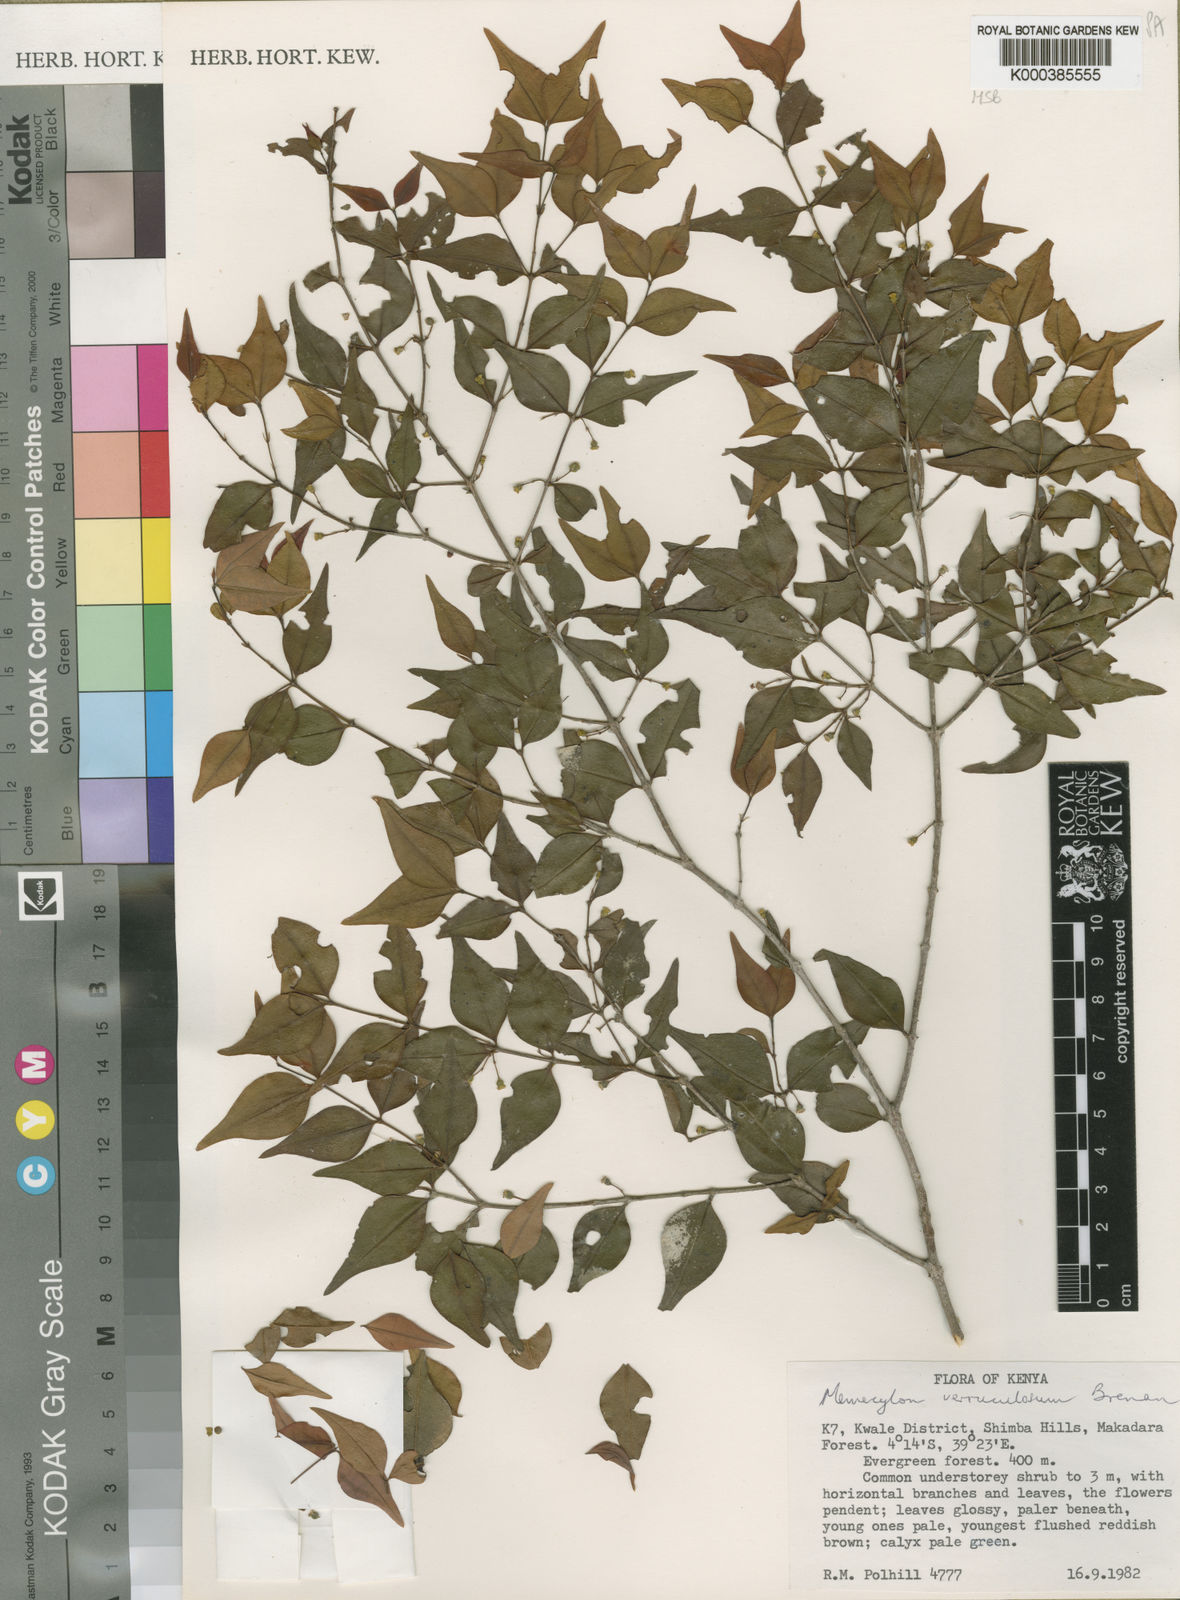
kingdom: Plantae
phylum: Tracheophyta
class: Magnoliopsida
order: Myrtales
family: Melastomataceae
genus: Memecylon
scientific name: Memecylon verruculosum
